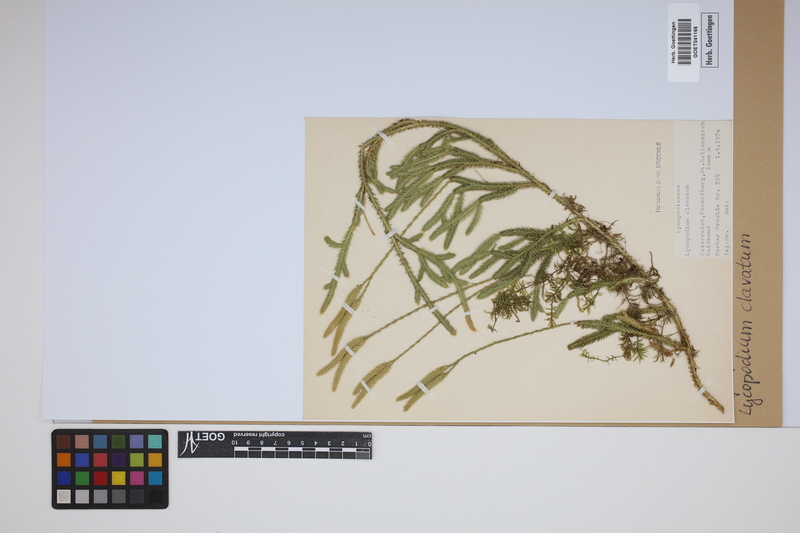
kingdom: Plantae
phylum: Tracheophyta
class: Lycopodiopsida
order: Lycopodiales
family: Lycopodiaceae
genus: Lycopodium
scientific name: Lycopodium clavatum
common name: Stag's-horn clubmoss
